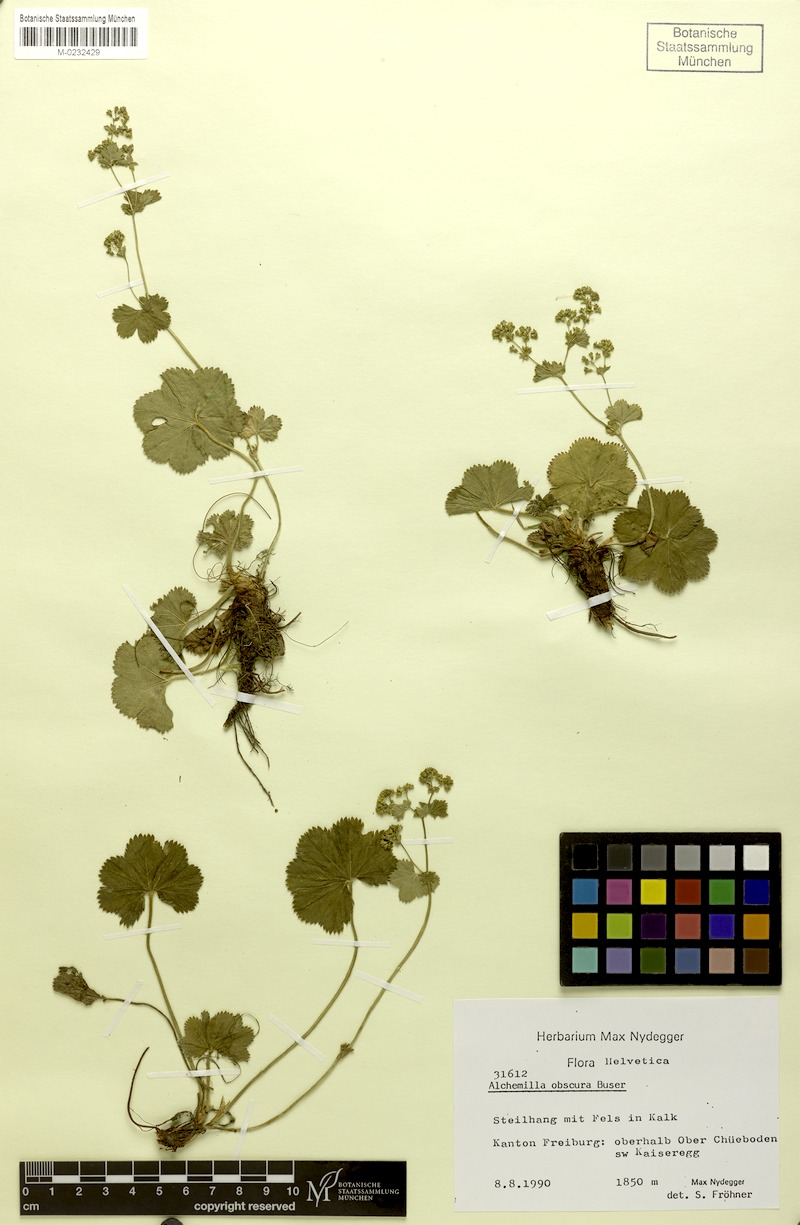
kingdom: Plantae
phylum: Tracheophyta
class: Magnoliopsida
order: Rosales
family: Rosaceae
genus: Alchemilla
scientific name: Alchemilla obscura
